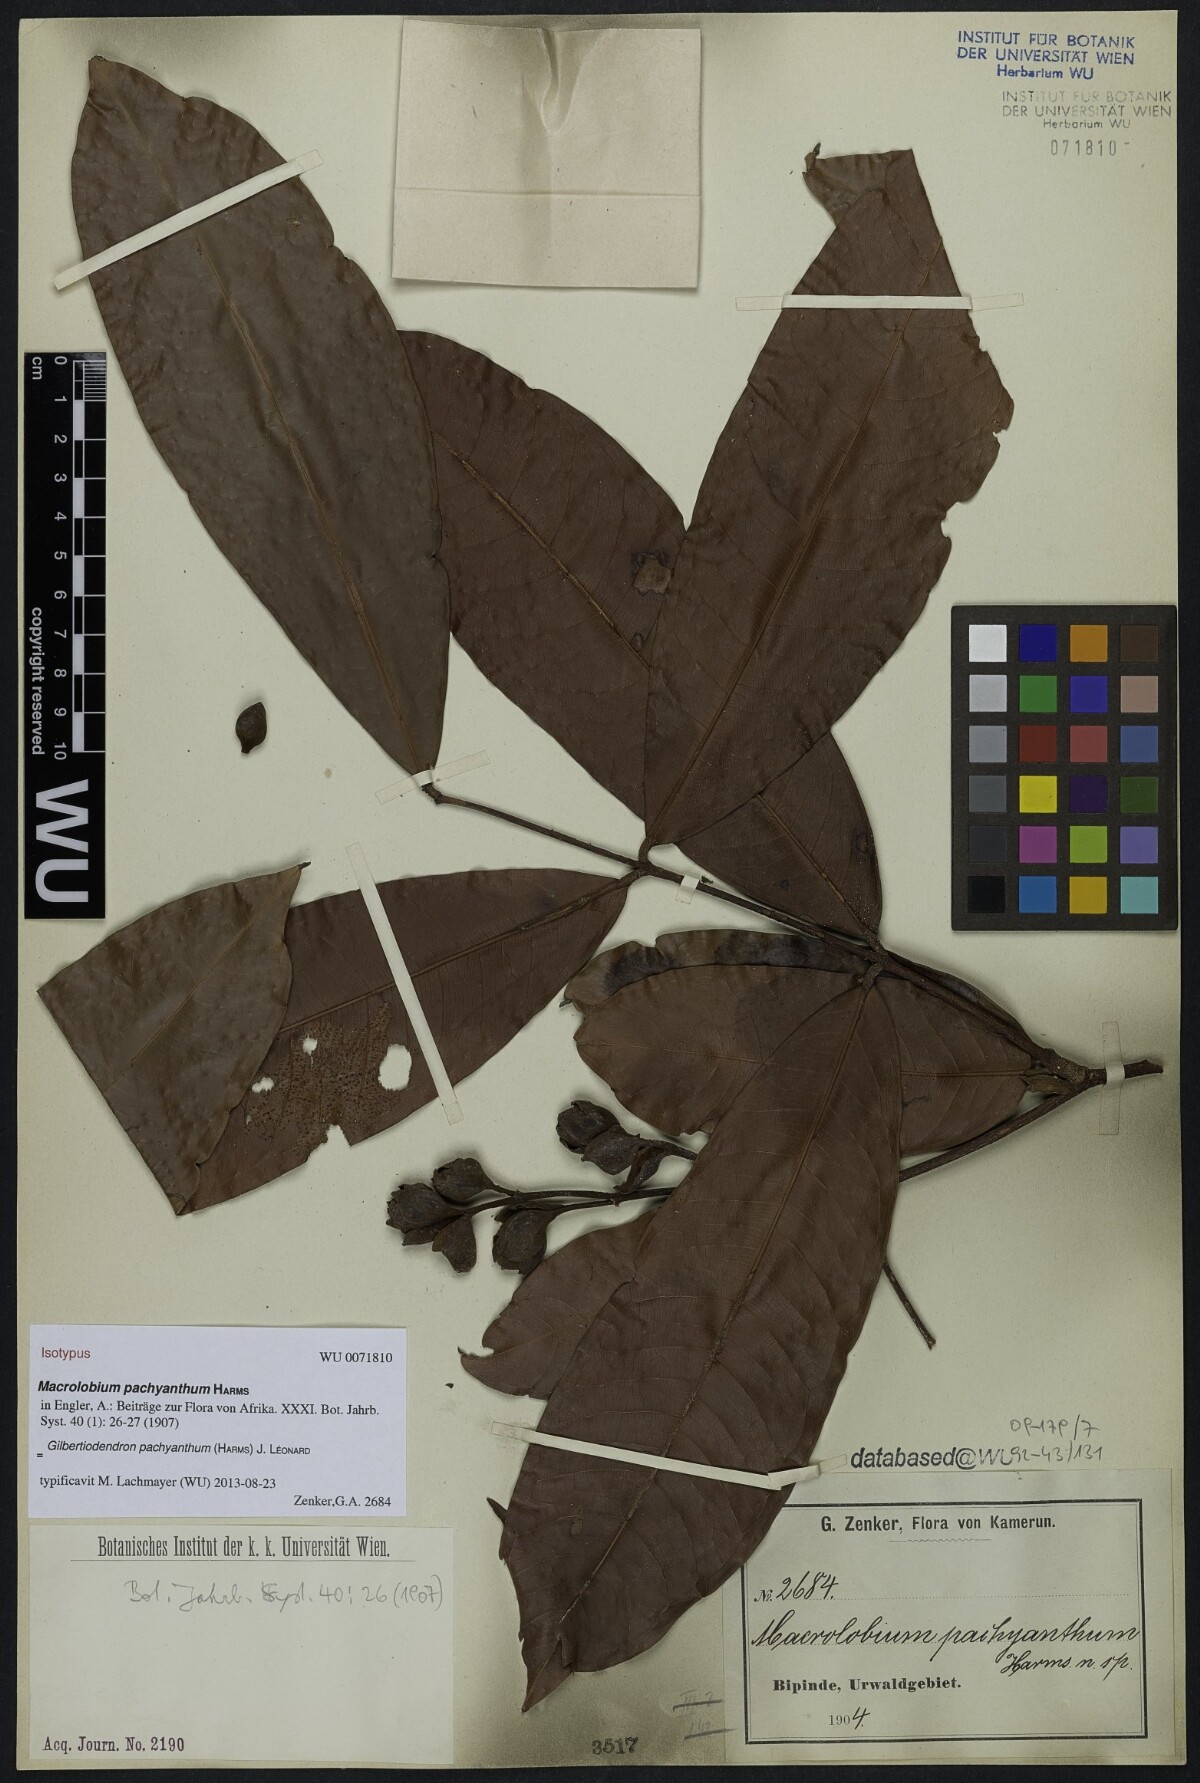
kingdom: Plantae
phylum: Tracheophyta
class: Magnoliopsida
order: Fabales
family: Fabaceae
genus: Gilbertiodendron
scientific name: Gilbertiodendron pachyanthum
